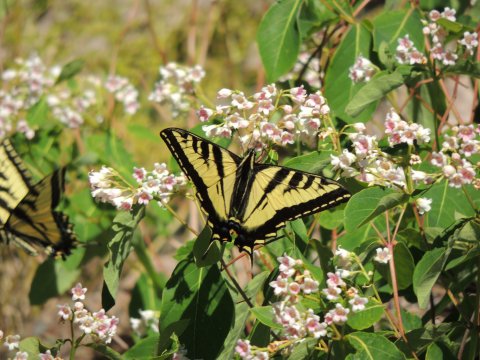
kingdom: Animalia
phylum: Arthropoda
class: Insecta
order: Lepidoptera
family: Papilionidae
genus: Pterourus
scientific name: Pterourus rutulus
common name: Western Tiger Swallowtail
